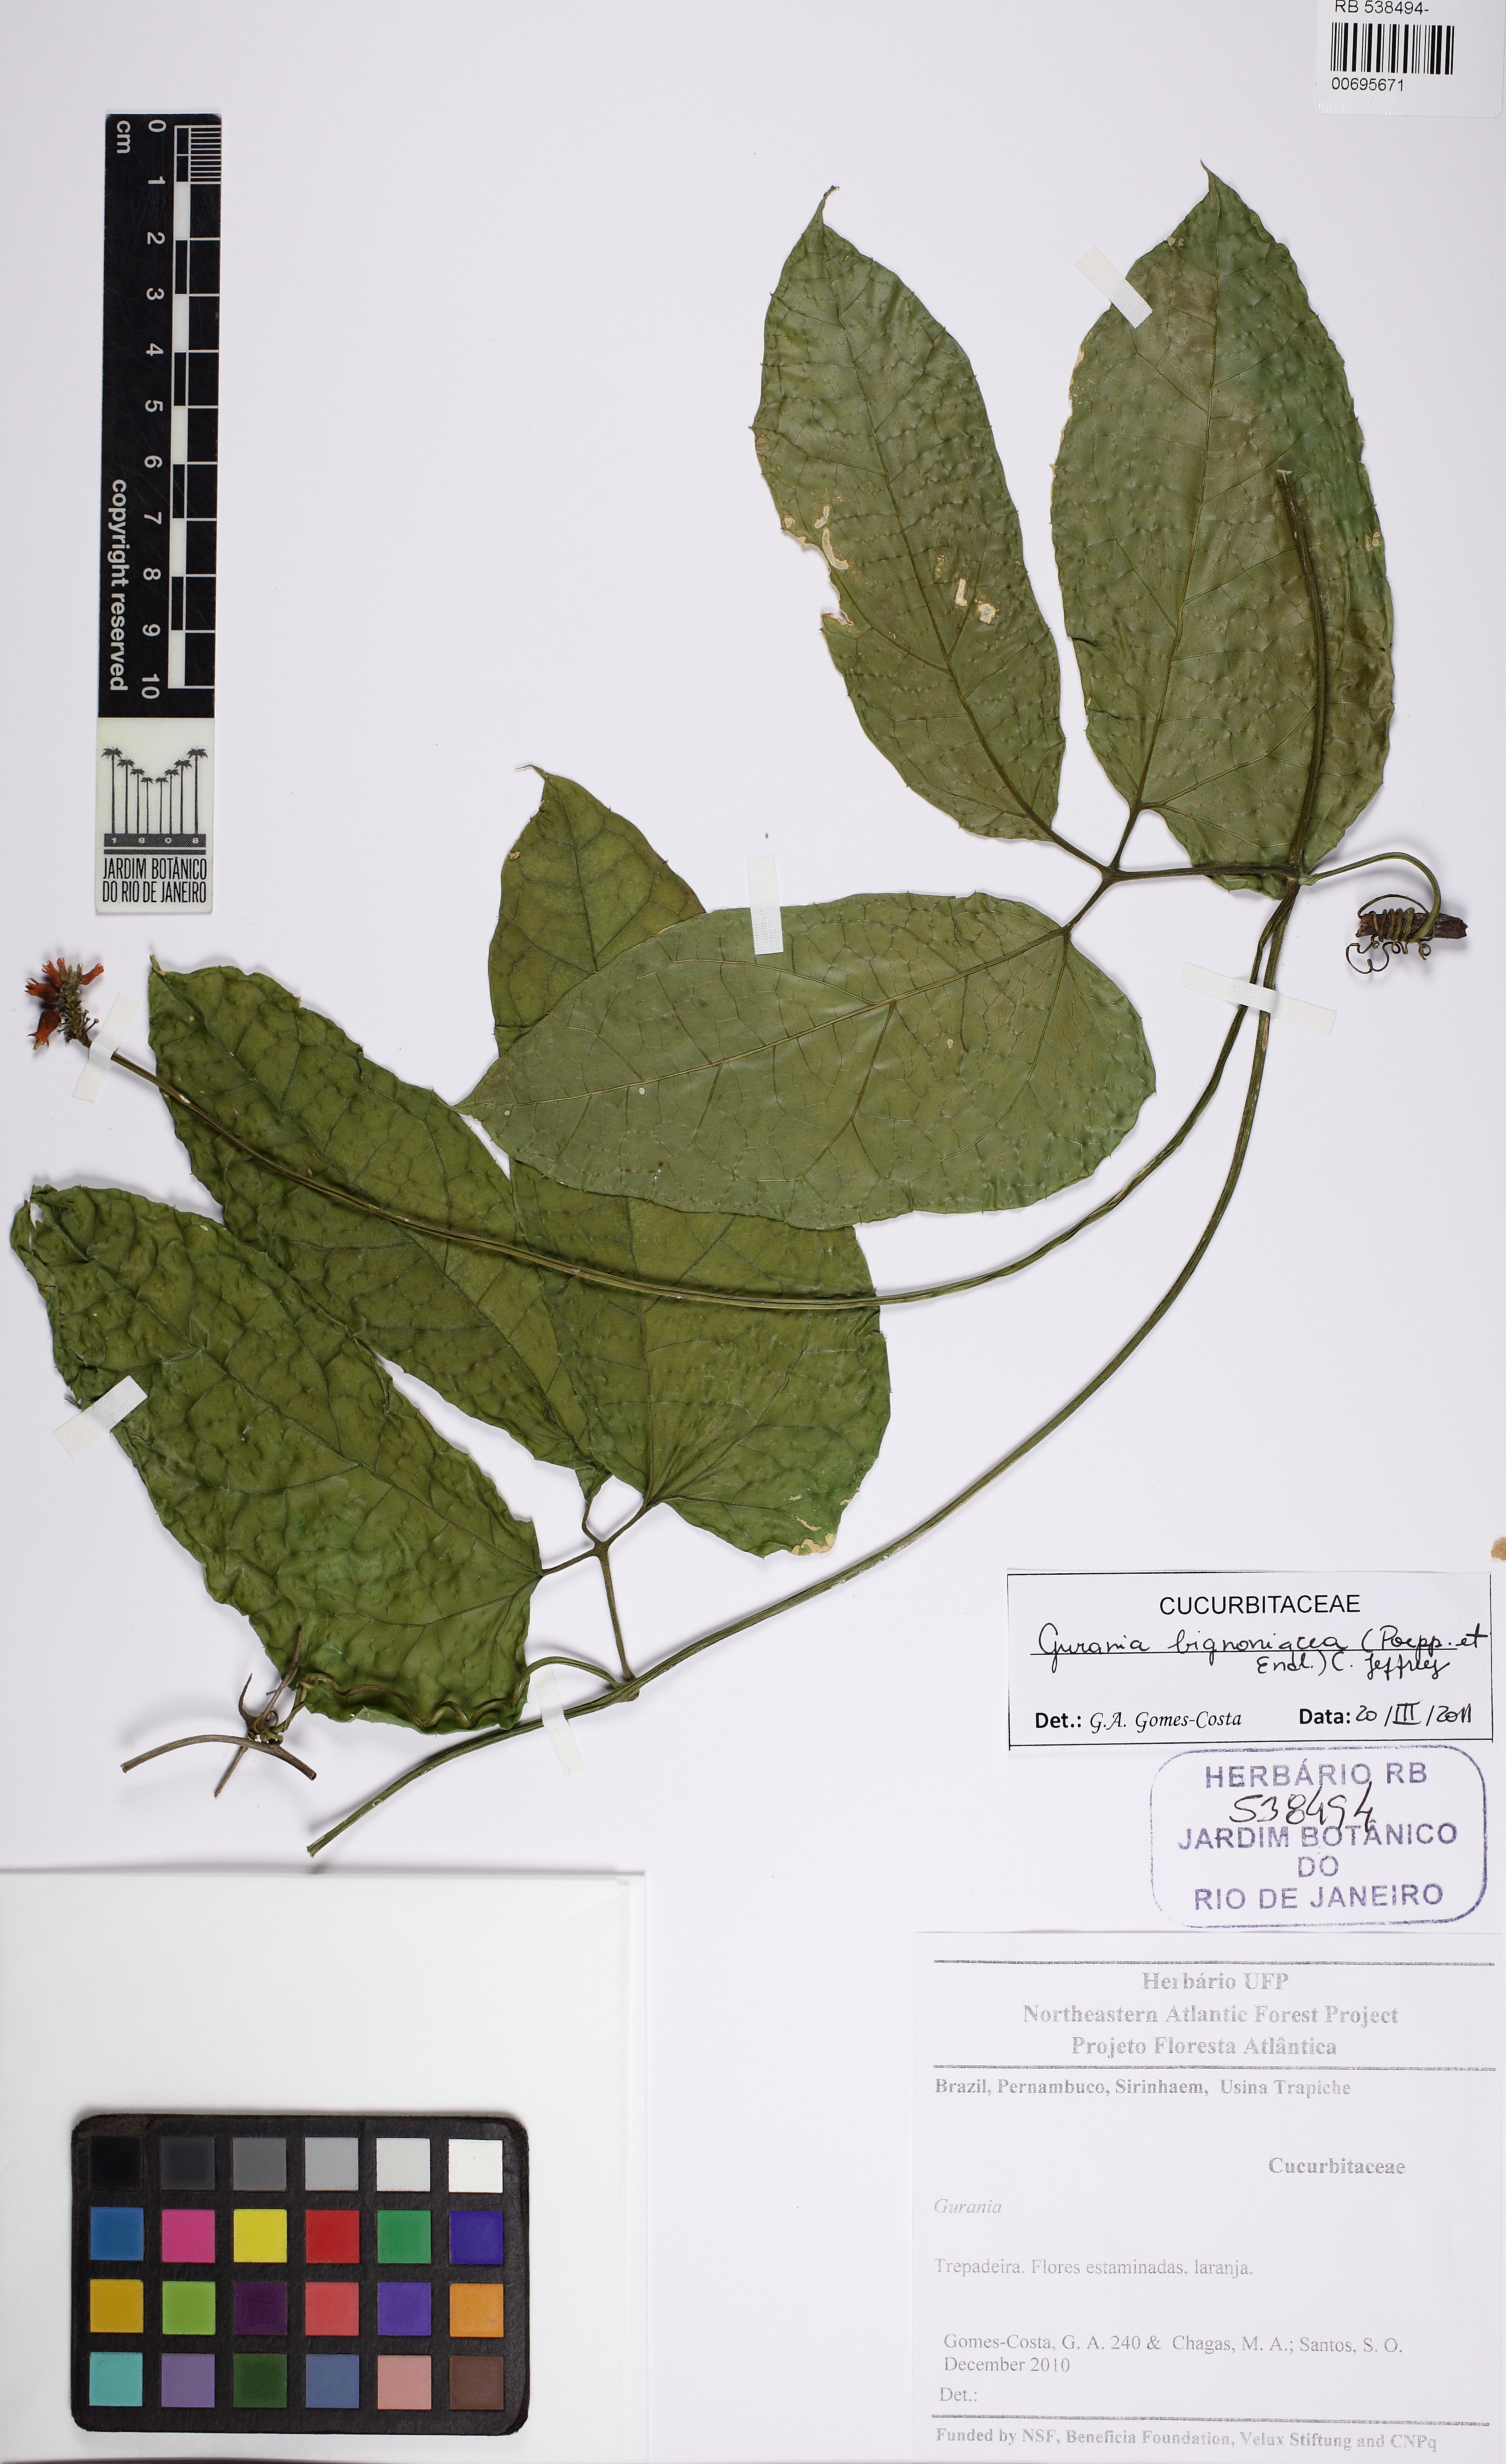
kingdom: Plantae
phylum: Tracheophyta
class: Magnoliopsida
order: Cucurbitales
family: Cucurbitaceae
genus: Gurania
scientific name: Gurania bignoniacea
